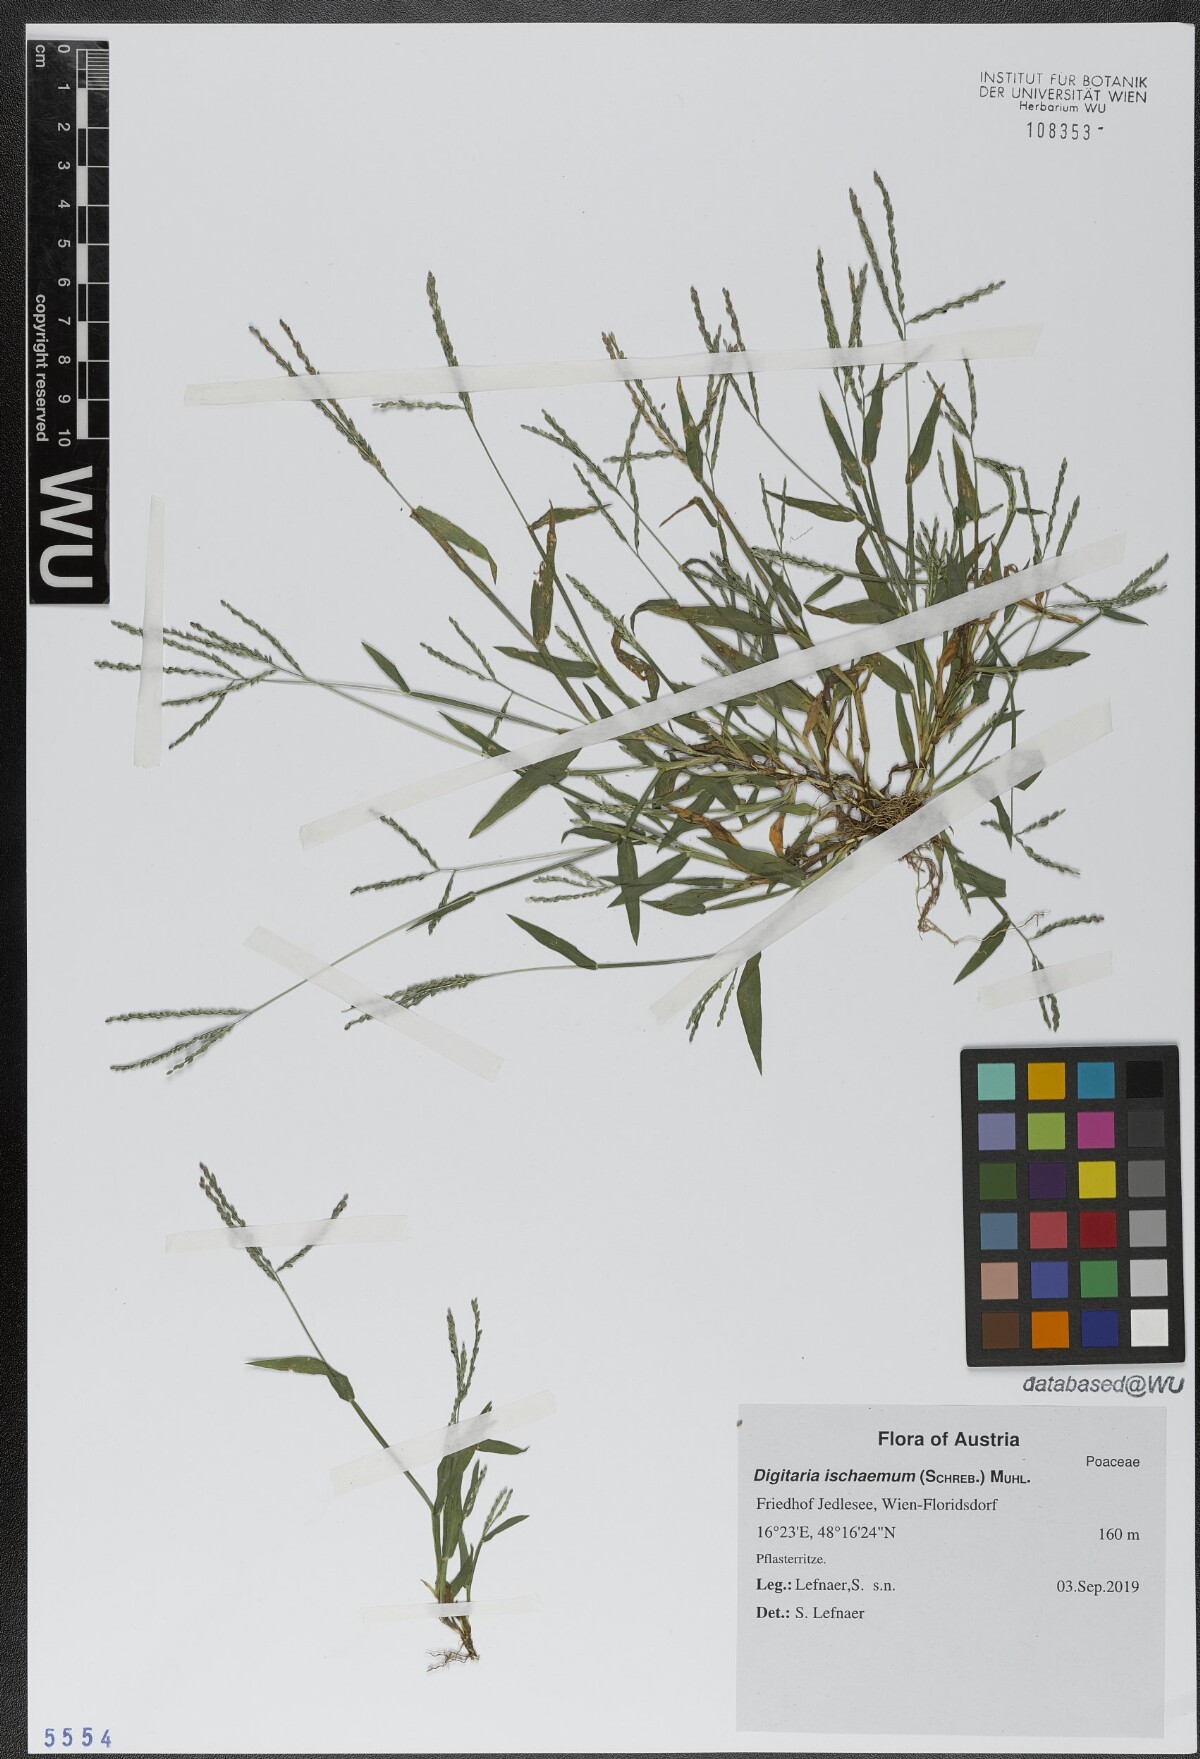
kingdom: Plantae
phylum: Tracheophyta
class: Liliopsida
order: Poales
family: Poaceae
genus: Digitaria
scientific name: Digitaria ischaemum
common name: Smooth crabgrass
